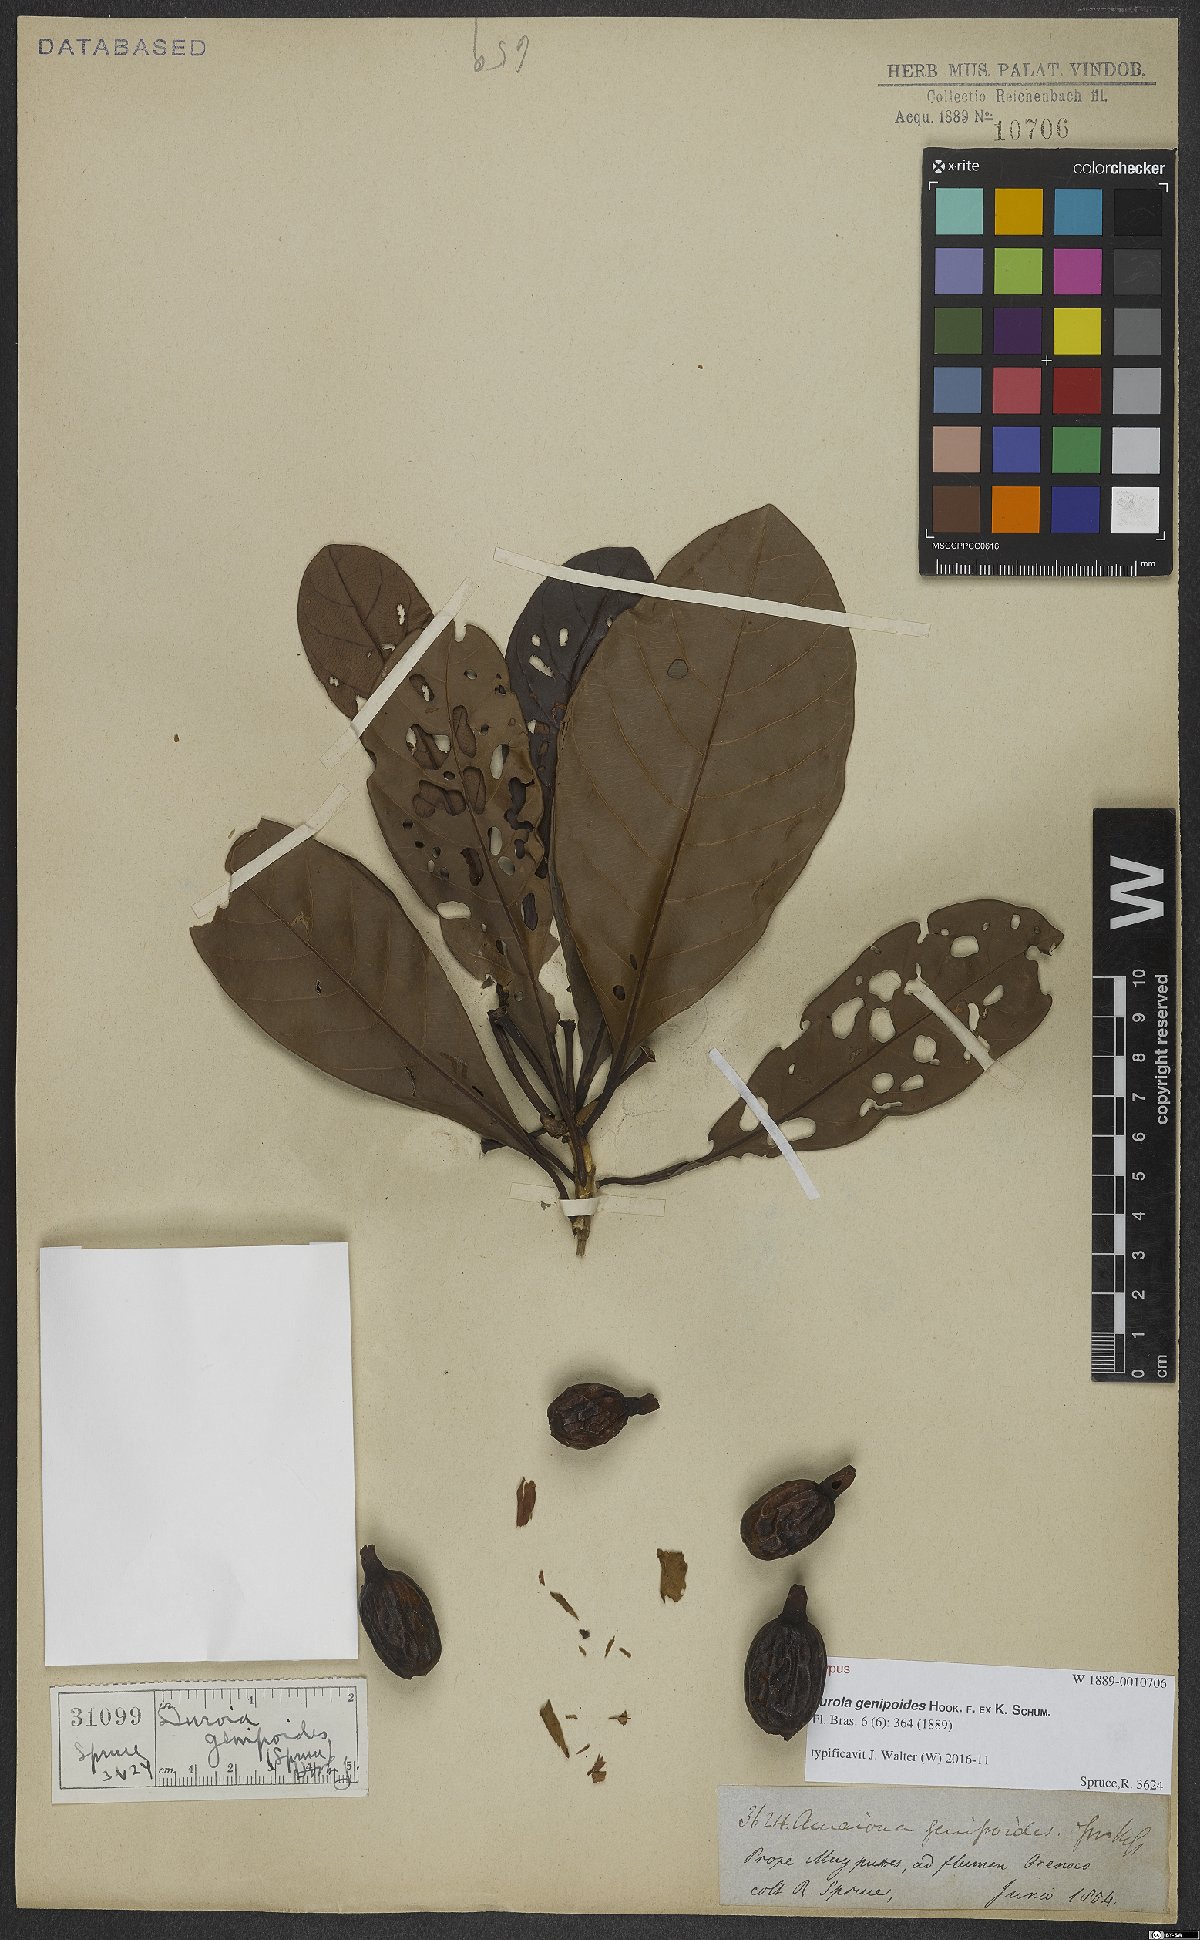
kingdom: Plantae
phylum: Tracheophyta
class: Magnoliopsida
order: Gentianales
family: Rubiaceae
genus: Duroia
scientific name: Duroia genipoides
